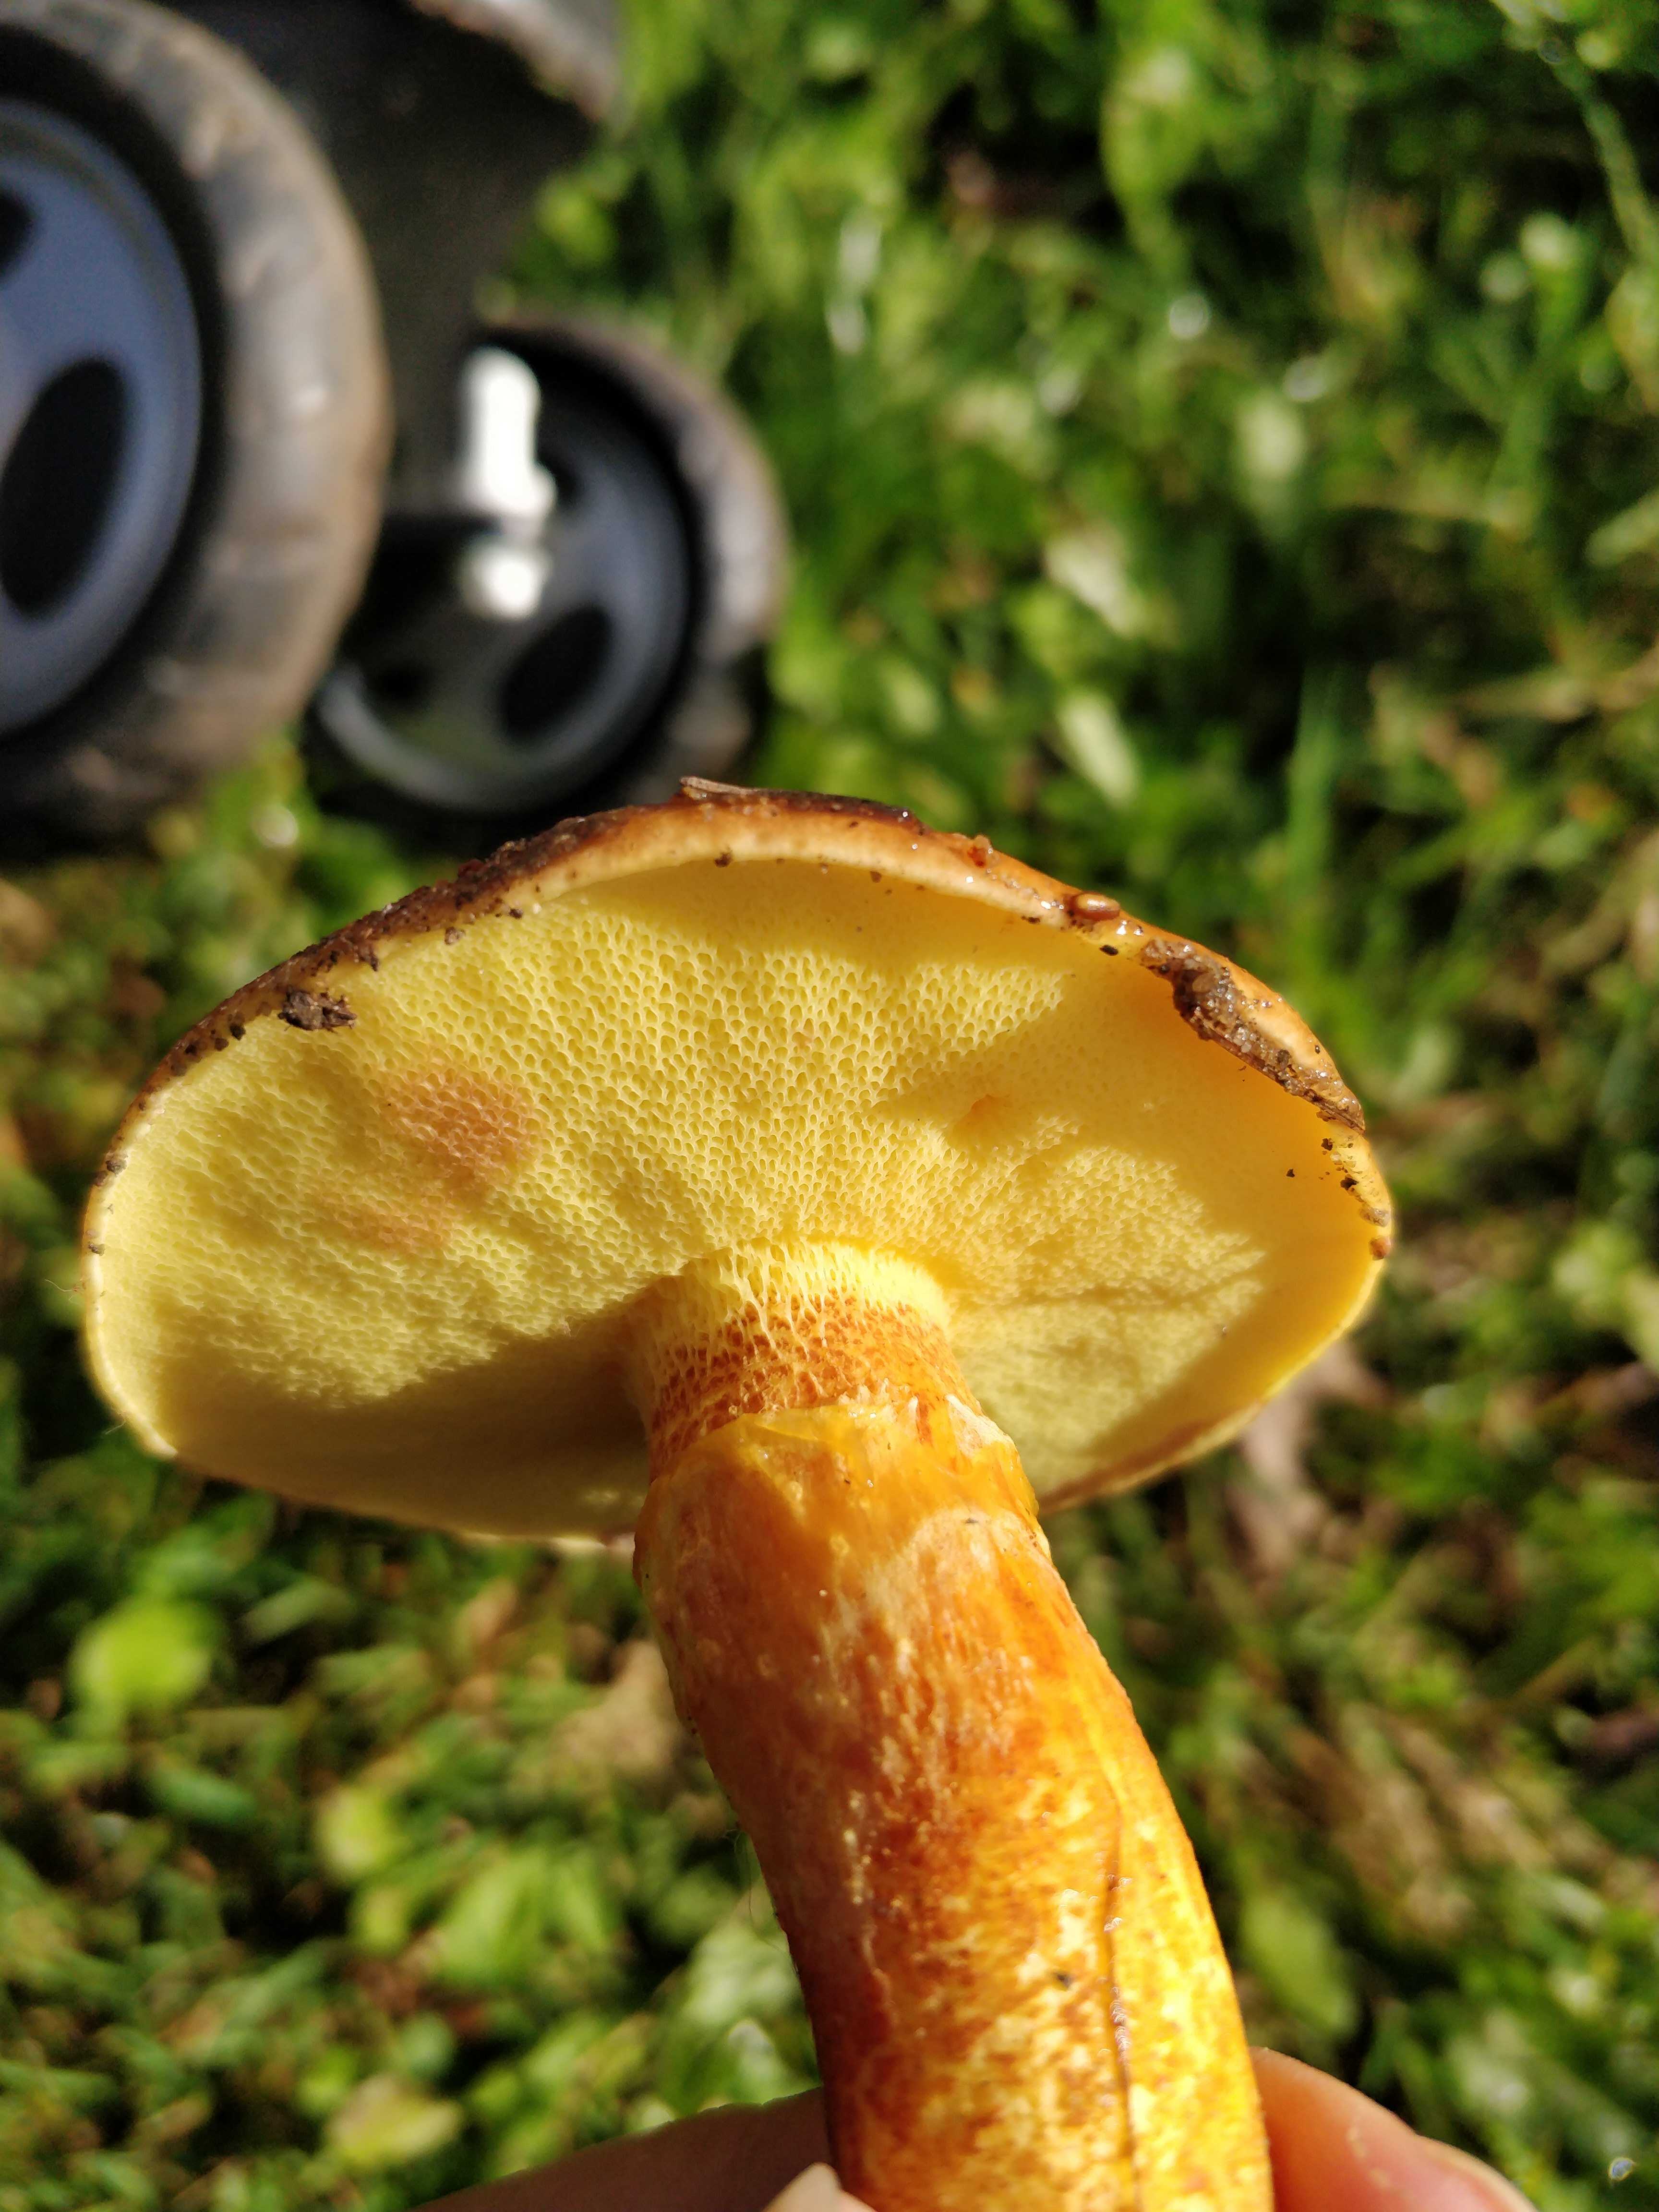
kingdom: Fungi
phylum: Basidiomycota
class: Agaricomycetes
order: Boletales
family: Suillaceae
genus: Suillus
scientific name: Suillus grevillei
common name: lærke-slimrørhat
